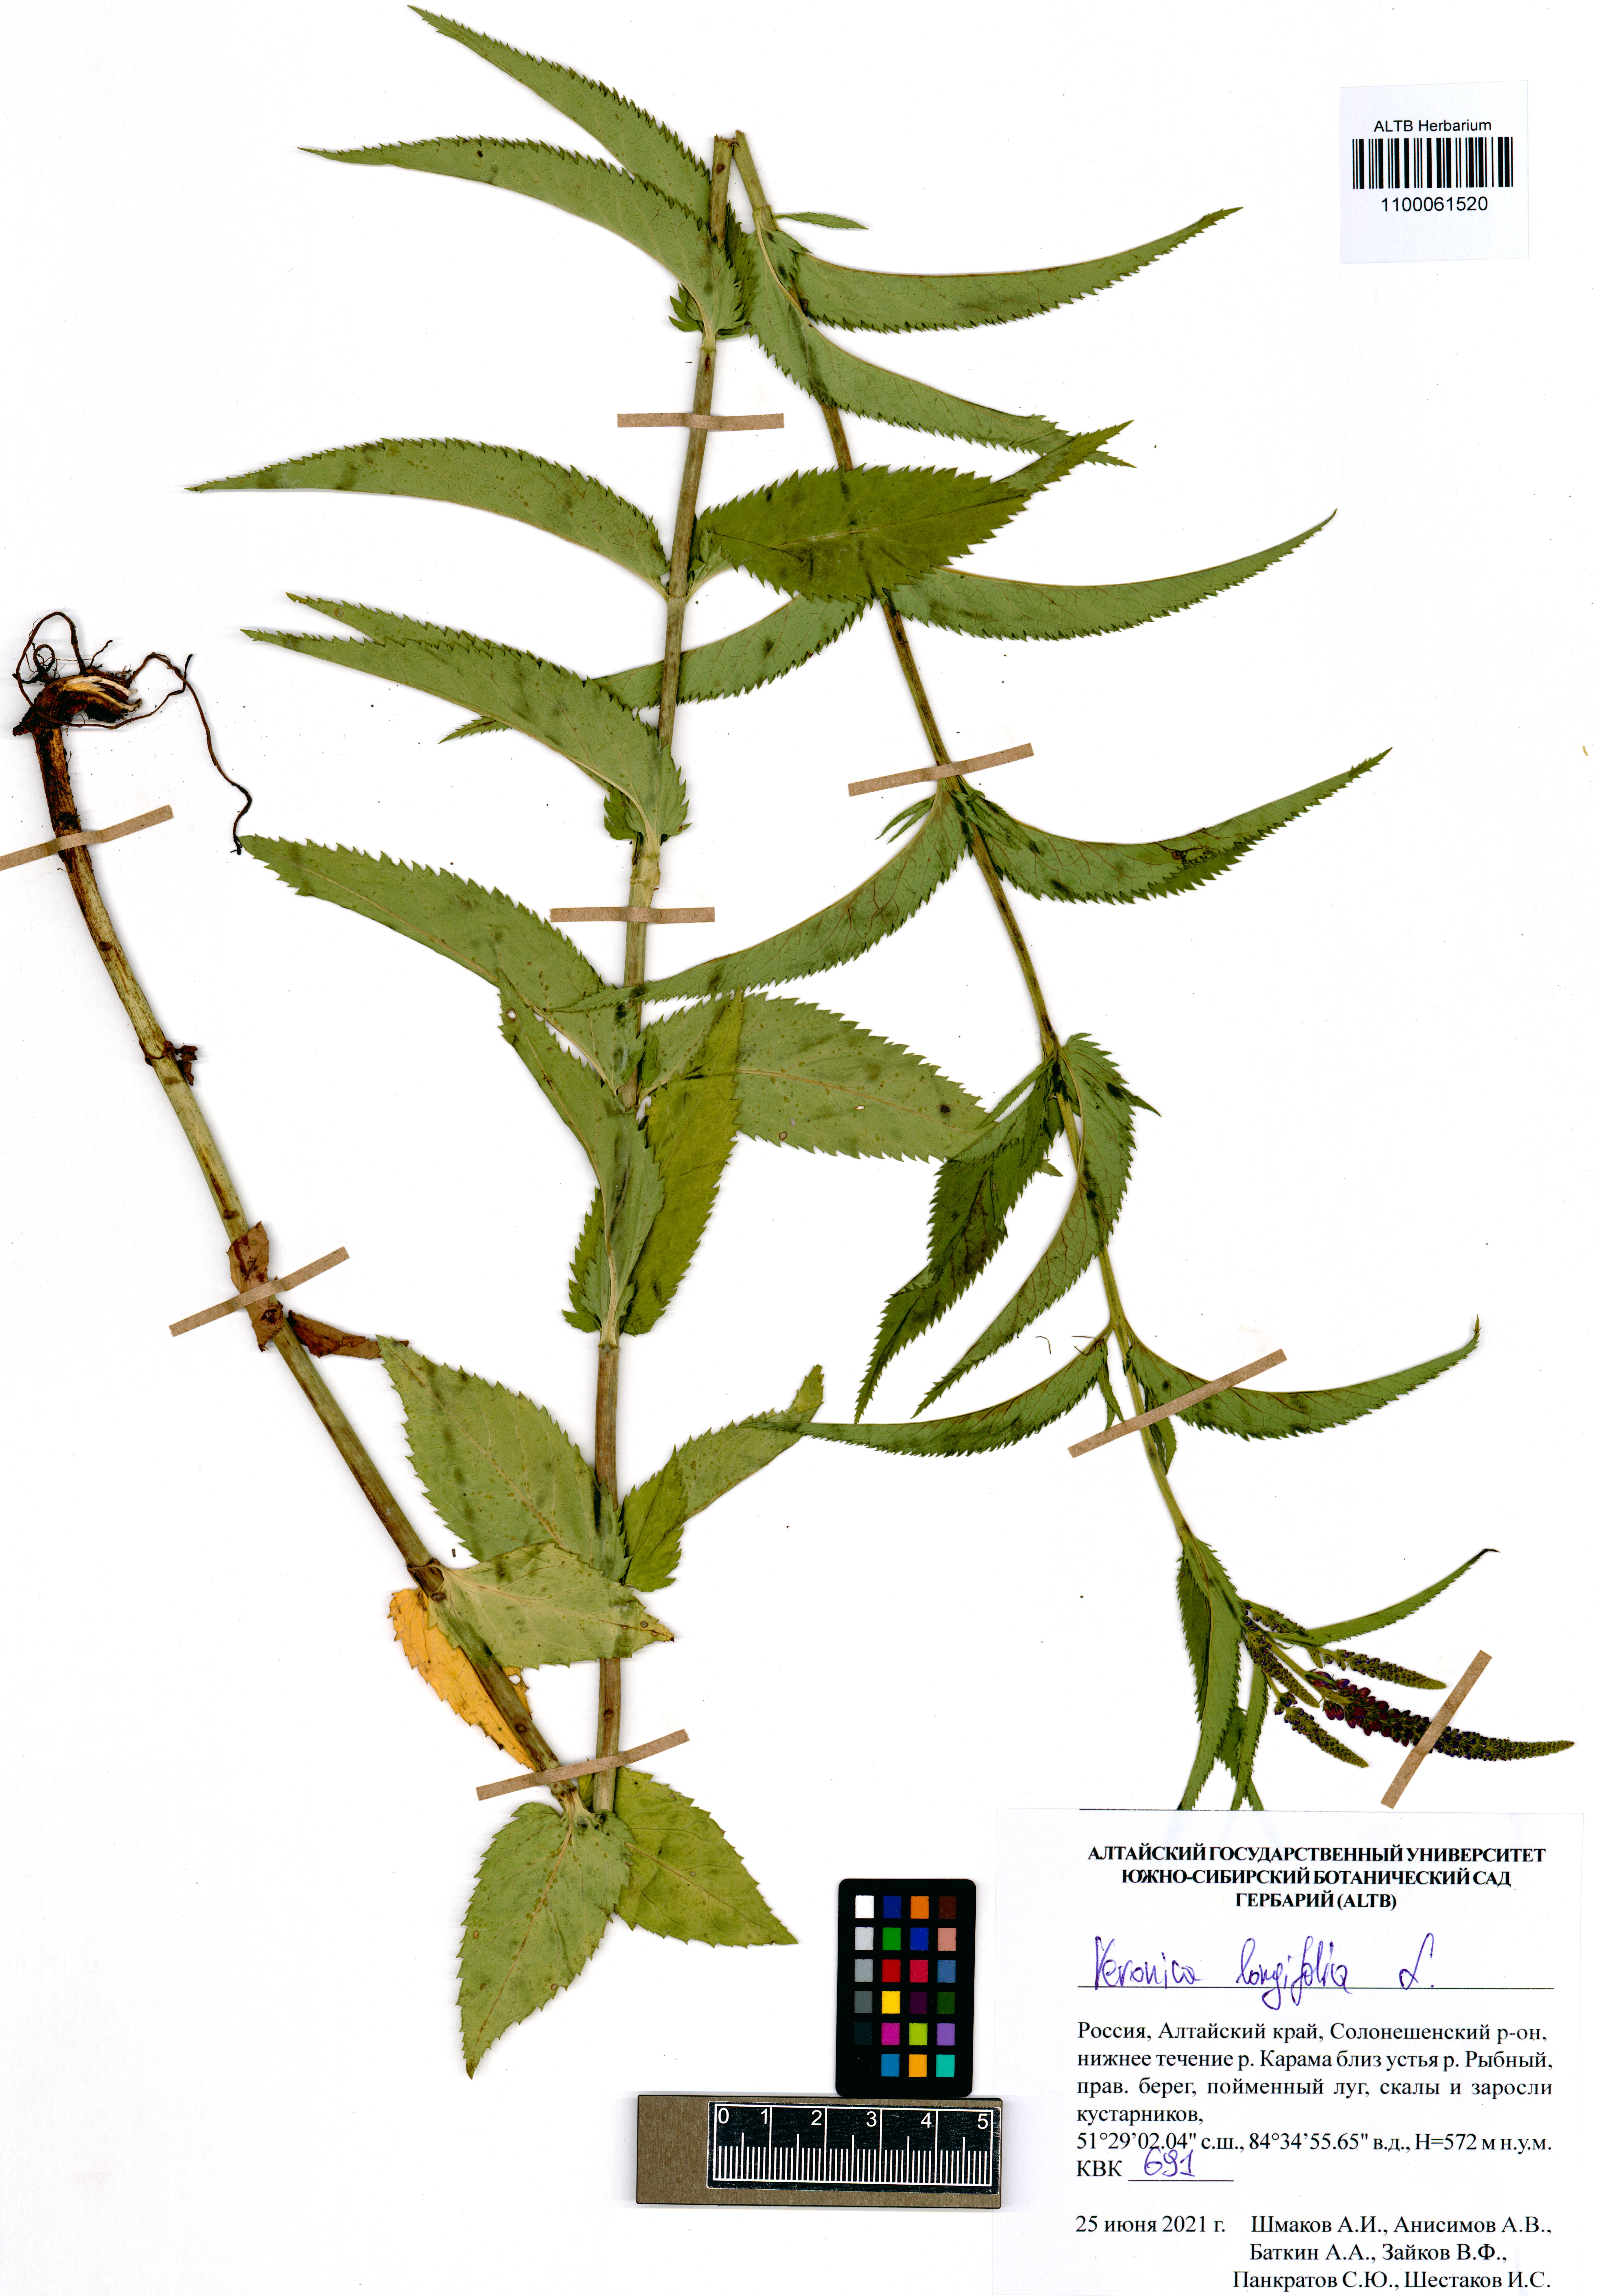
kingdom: Plantae
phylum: Tracheophyta
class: Magnoliopsida
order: Lamiales
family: Plantaginaceae
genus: Veronica
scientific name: Veronica longifolia
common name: Garden speedwell
